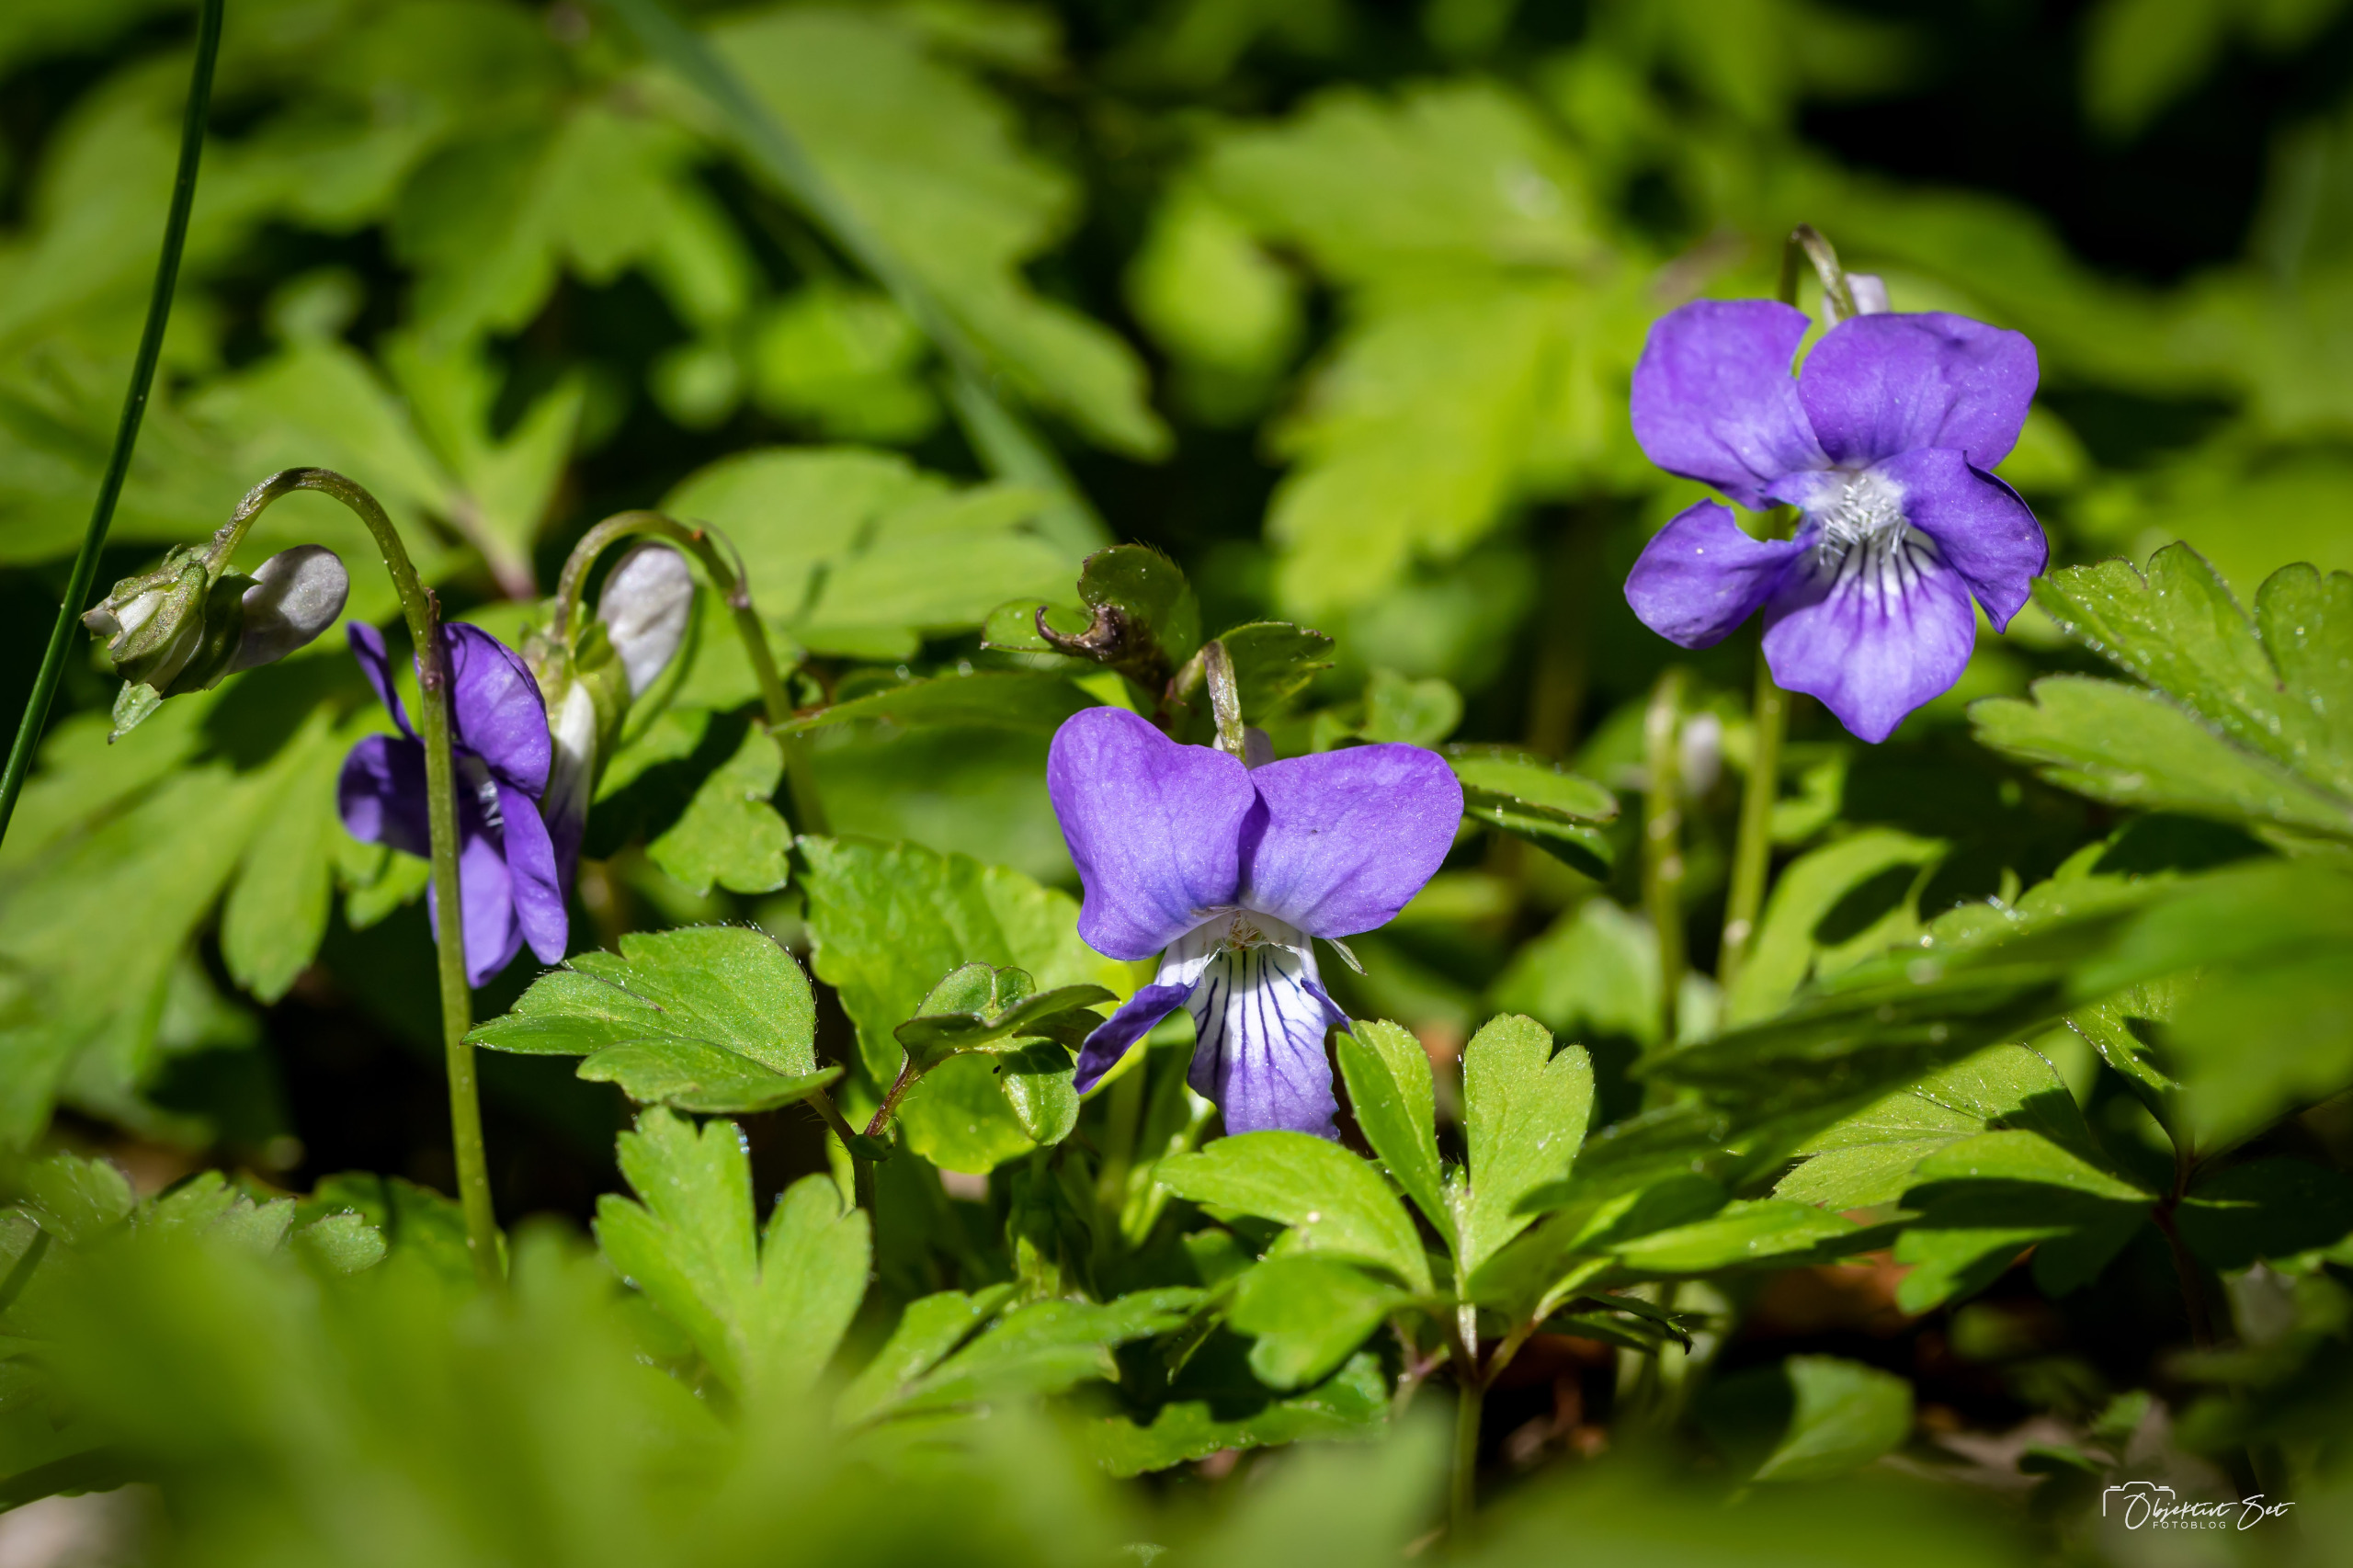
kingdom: Plantae
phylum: Tracheophyta
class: Magnoliopsida
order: Malpighiales
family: Violaceae
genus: Viola
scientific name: Viola riviniana
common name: Krat-viol
